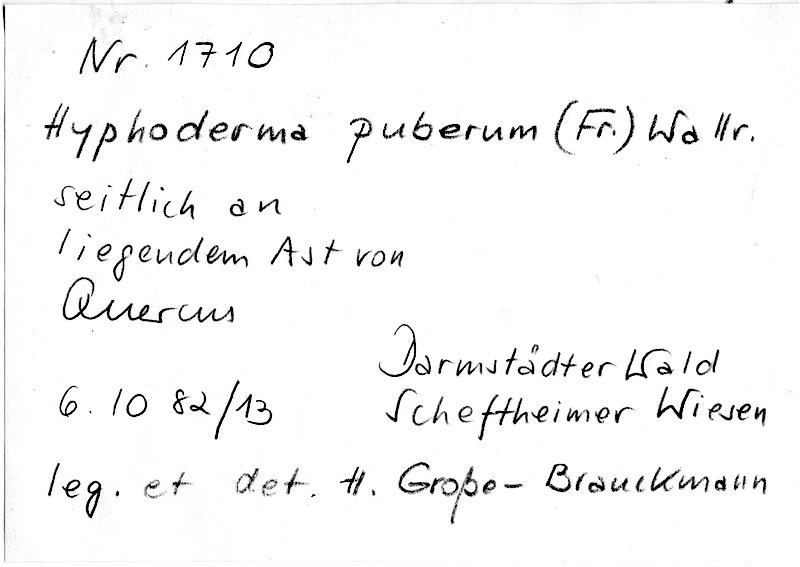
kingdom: Fungi
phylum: Basidiomycota
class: Agaricomycetes
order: Hymenochaetales
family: Rickenellaceae
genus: Peniophorella
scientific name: Peniophorella pubera
